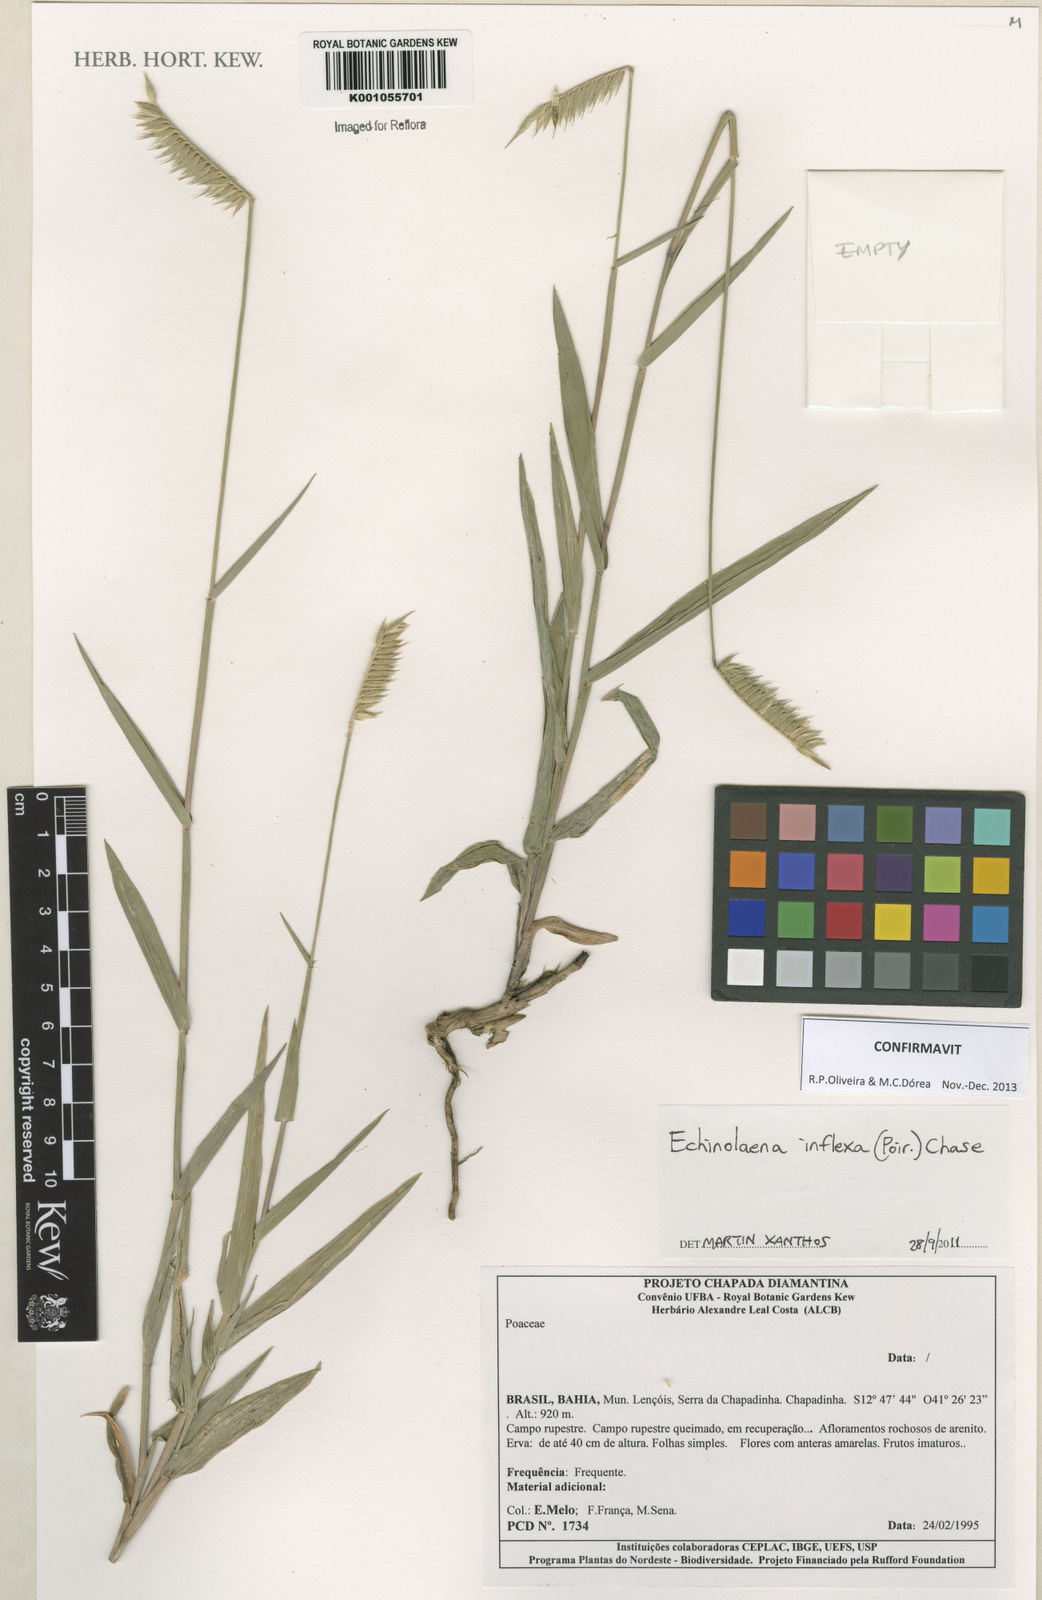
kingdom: Plantae
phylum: Tracheophyta
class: Liliopsida
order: Poales
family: Poaceae
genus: Echinolaena
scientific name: Echinolaena inflexa
